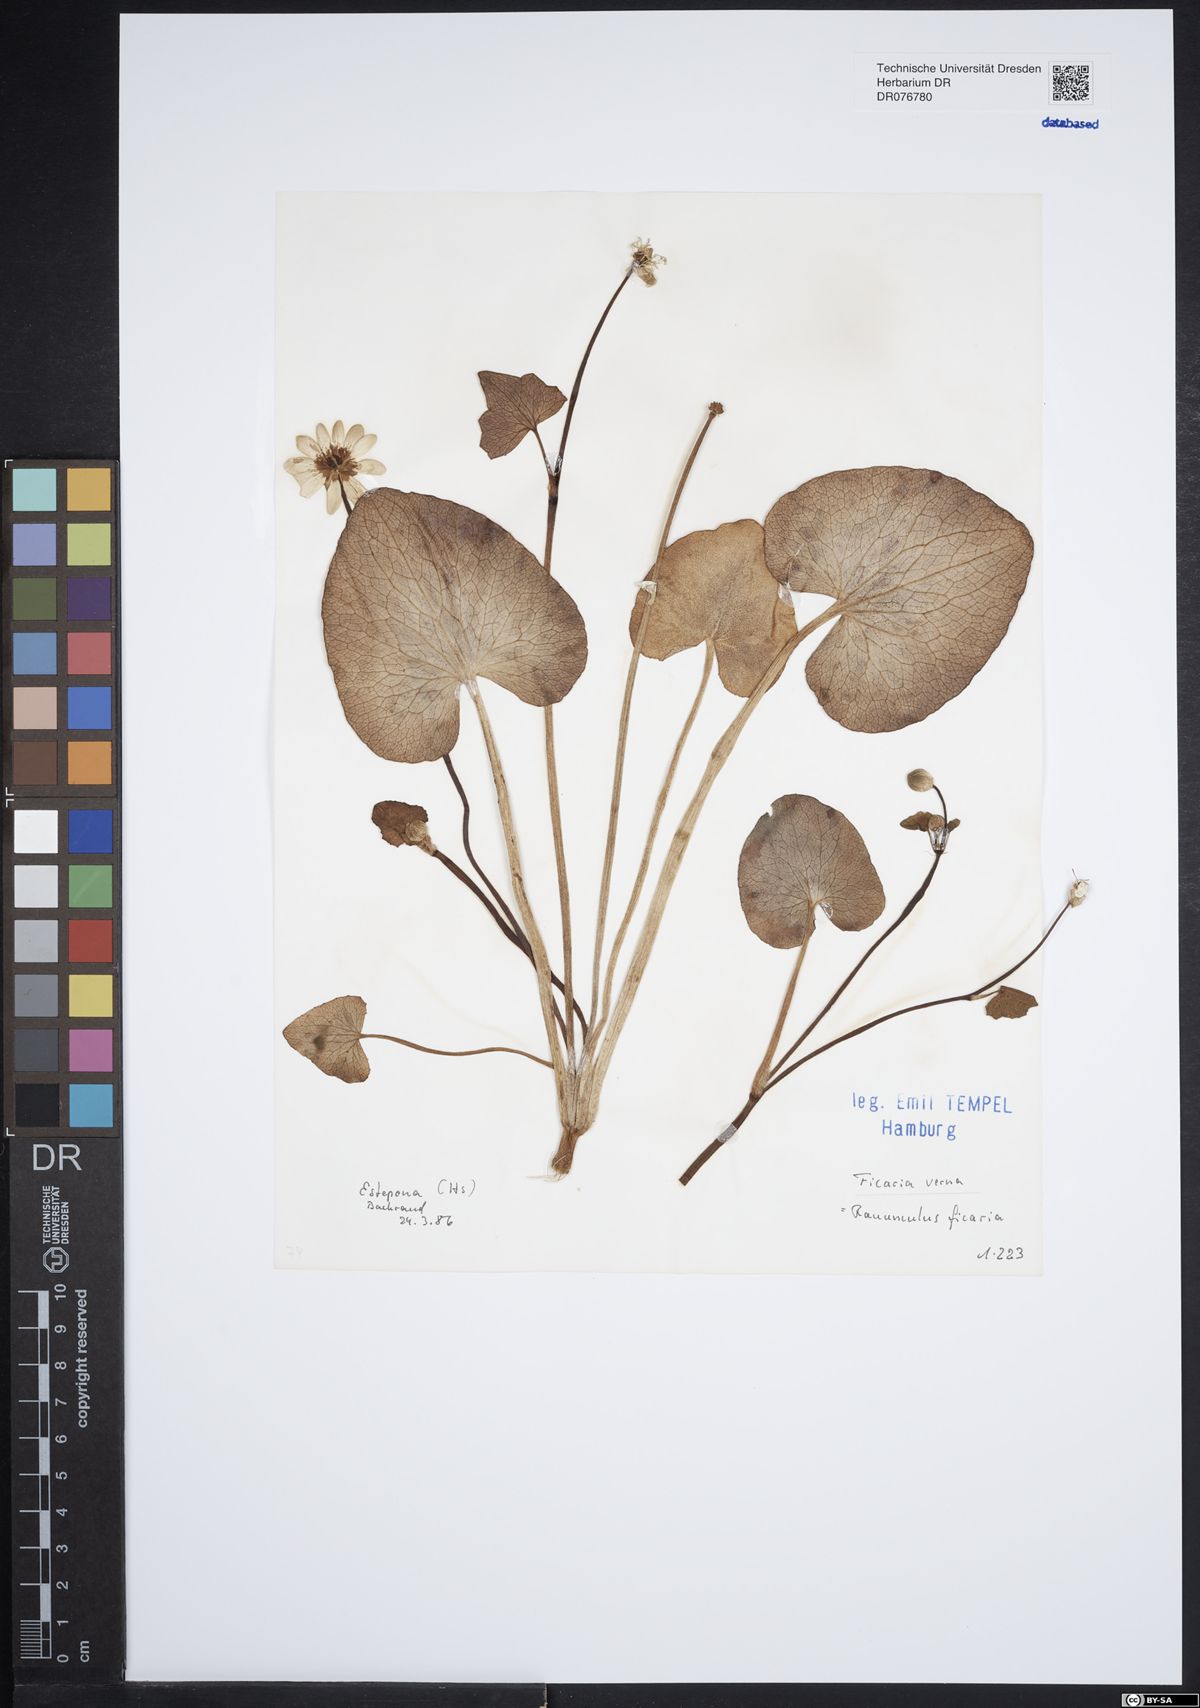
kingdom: Plantae
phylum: Tracheophyta
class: Magnoliopsida
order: Ranunculales
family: Ranunculaceae
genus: Ficaria
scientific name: Ficaria verna
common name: Lesser celandine
